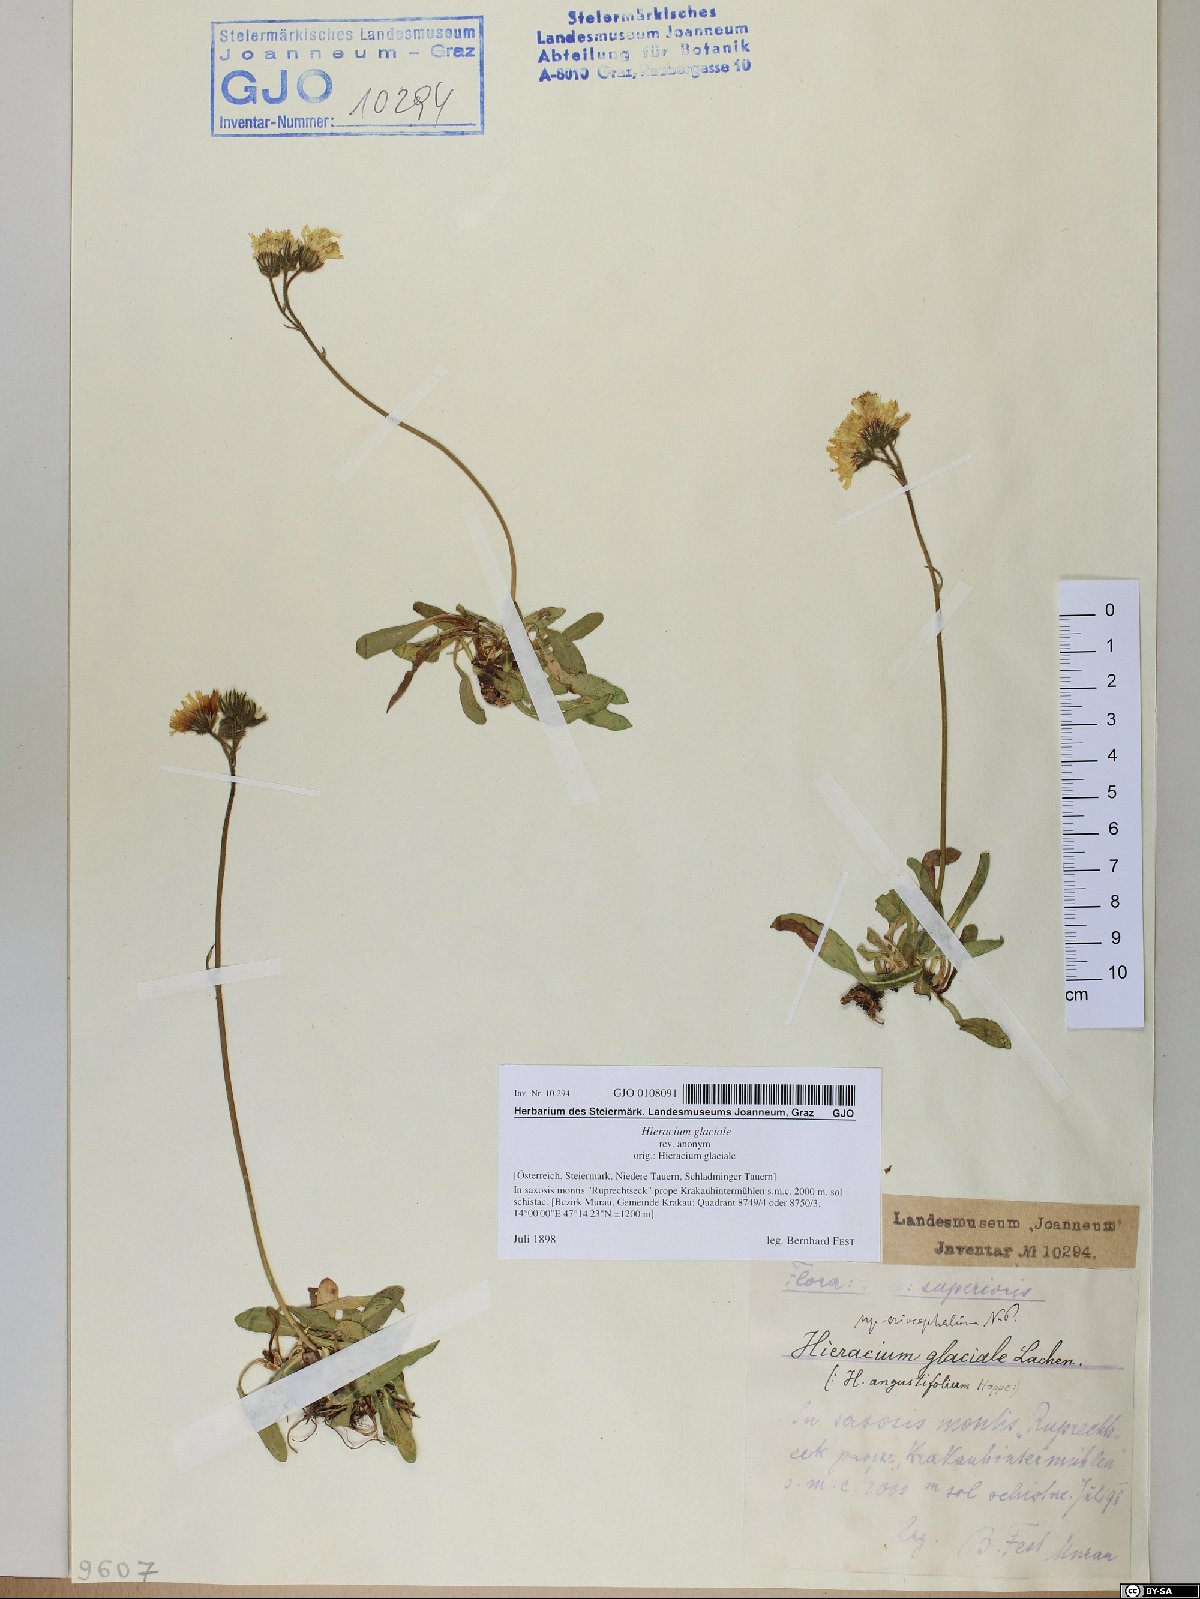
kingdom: Plantae
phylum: Tracheophyta
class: Magnoliopsida
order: Asterales
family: Asteraceae
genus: Pilosella
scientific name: Pilosella glacialis
